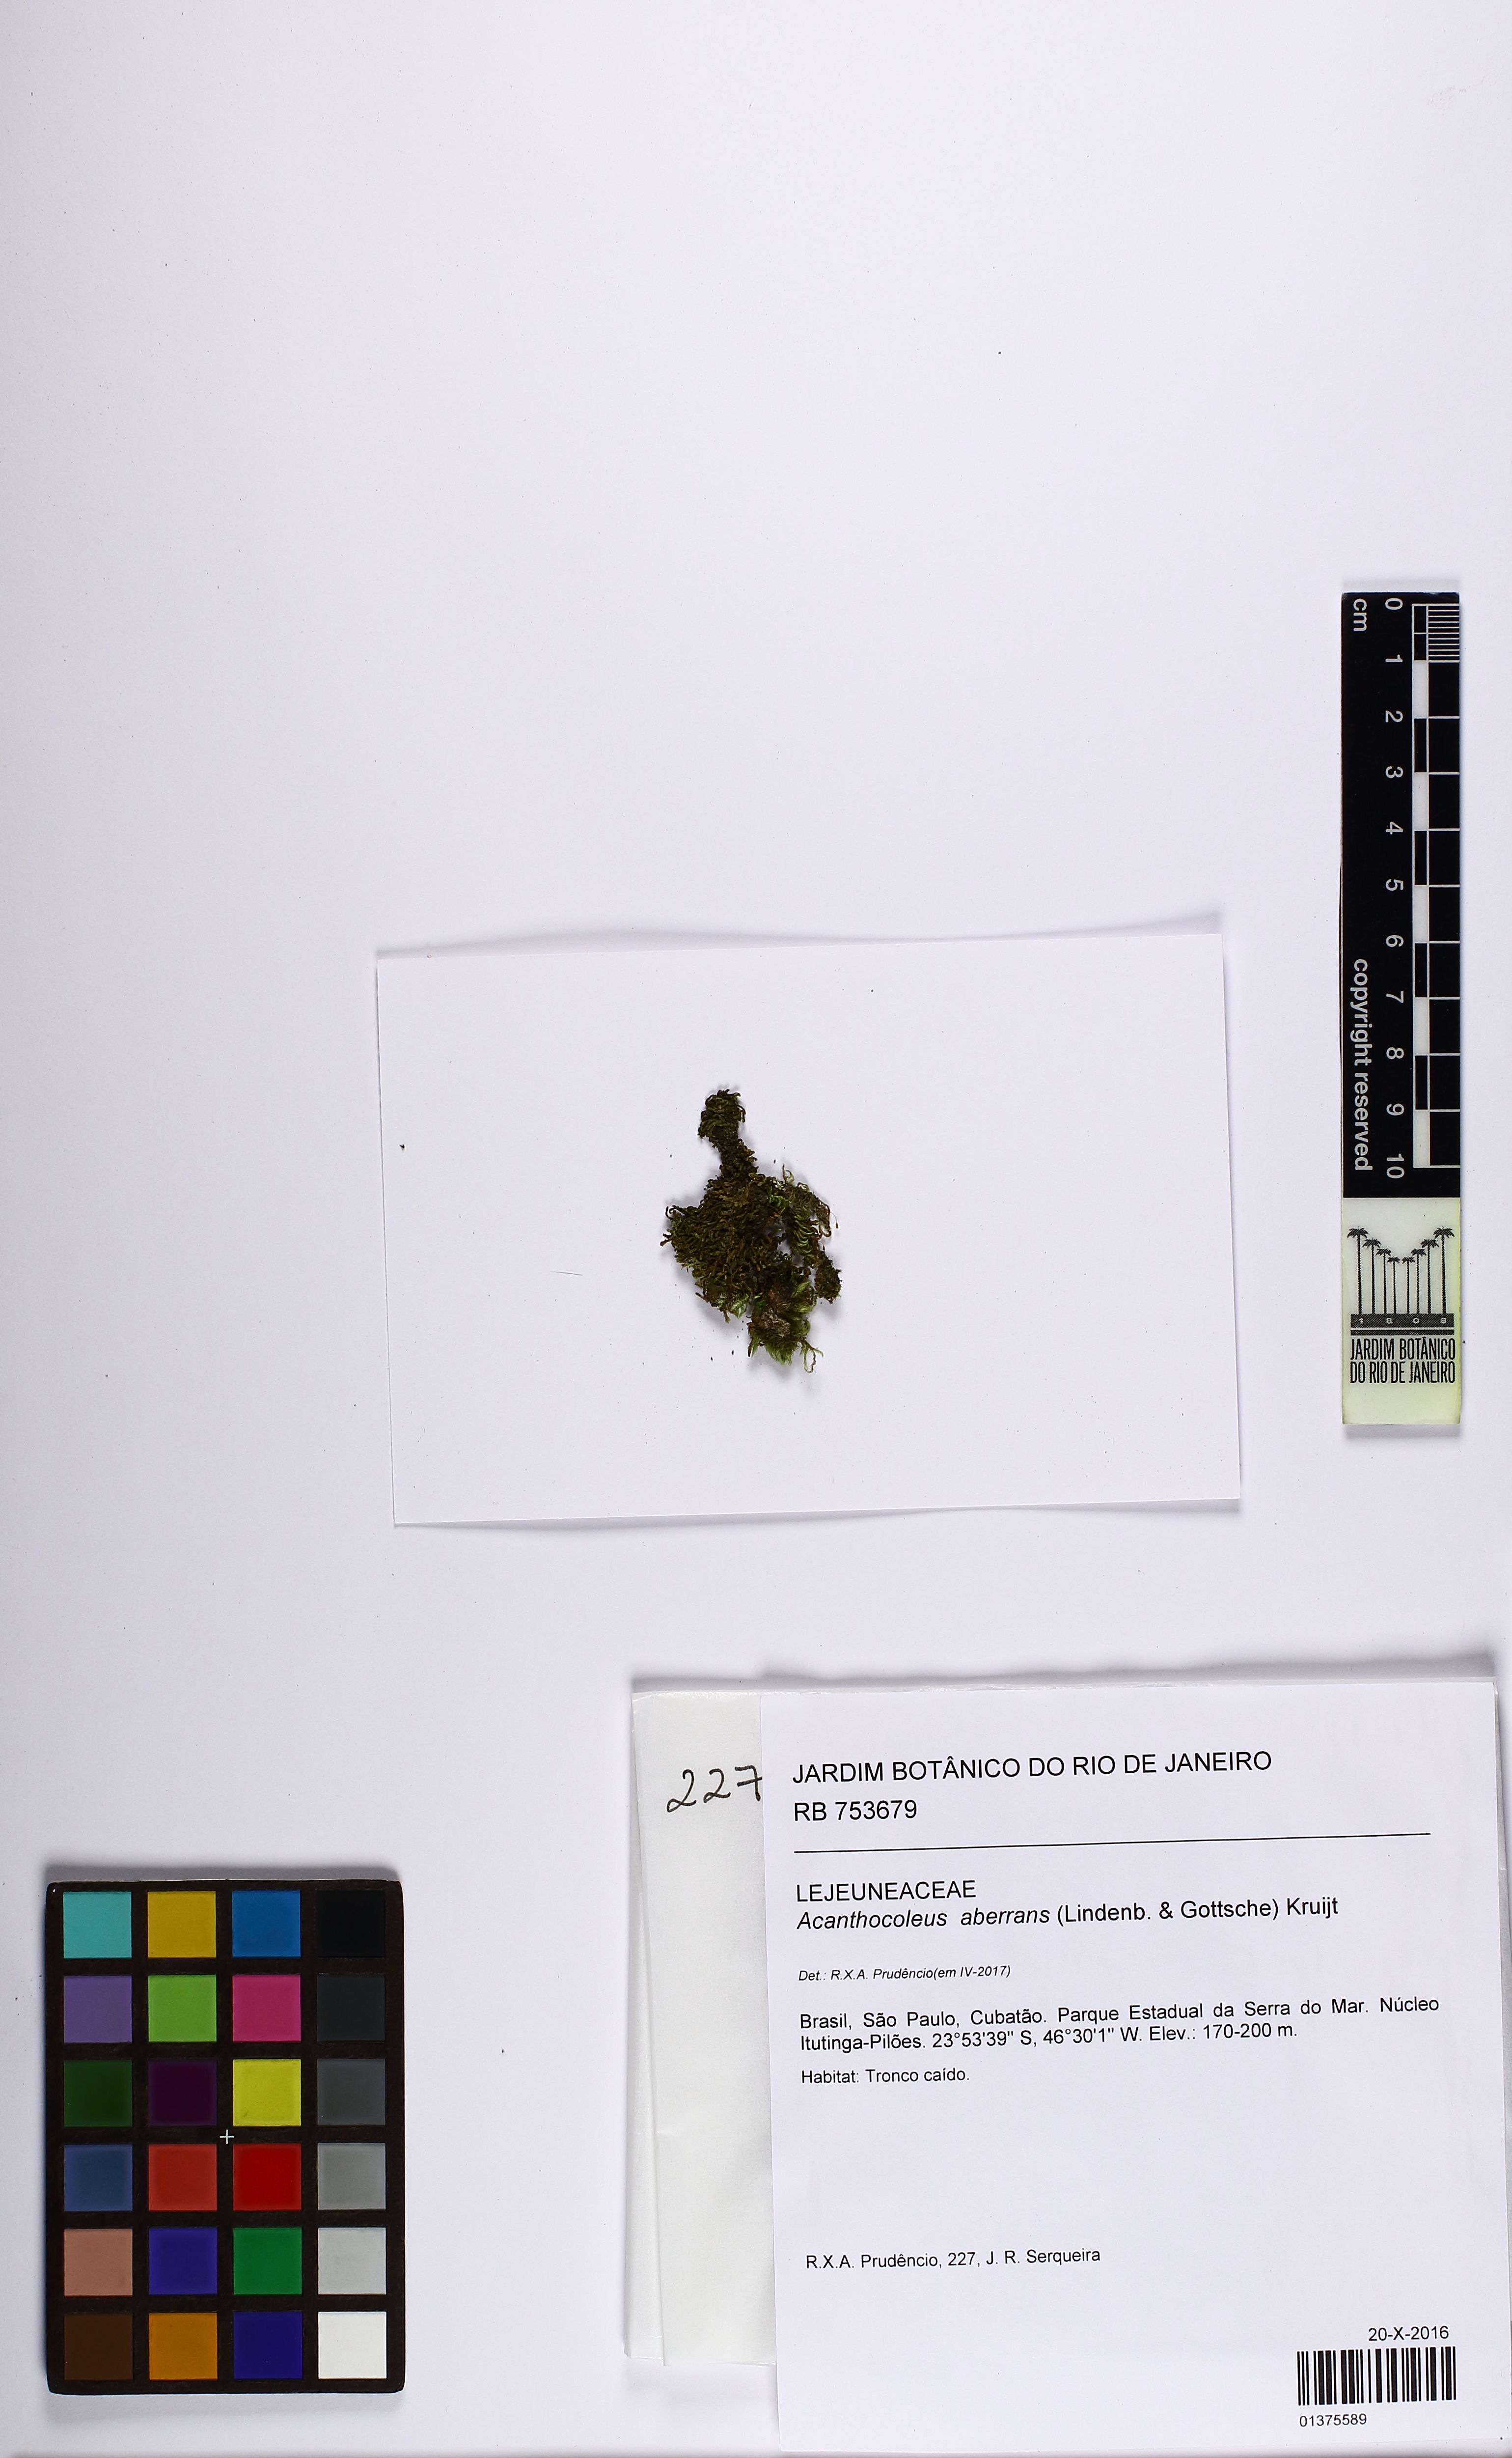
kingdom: Plantae
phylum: Marchantiophyta
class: Jungermanniopsida
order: Porellales
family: Lejeuneaceae
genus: Acanthocoleus
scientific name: Acanthocoleus aberrans
